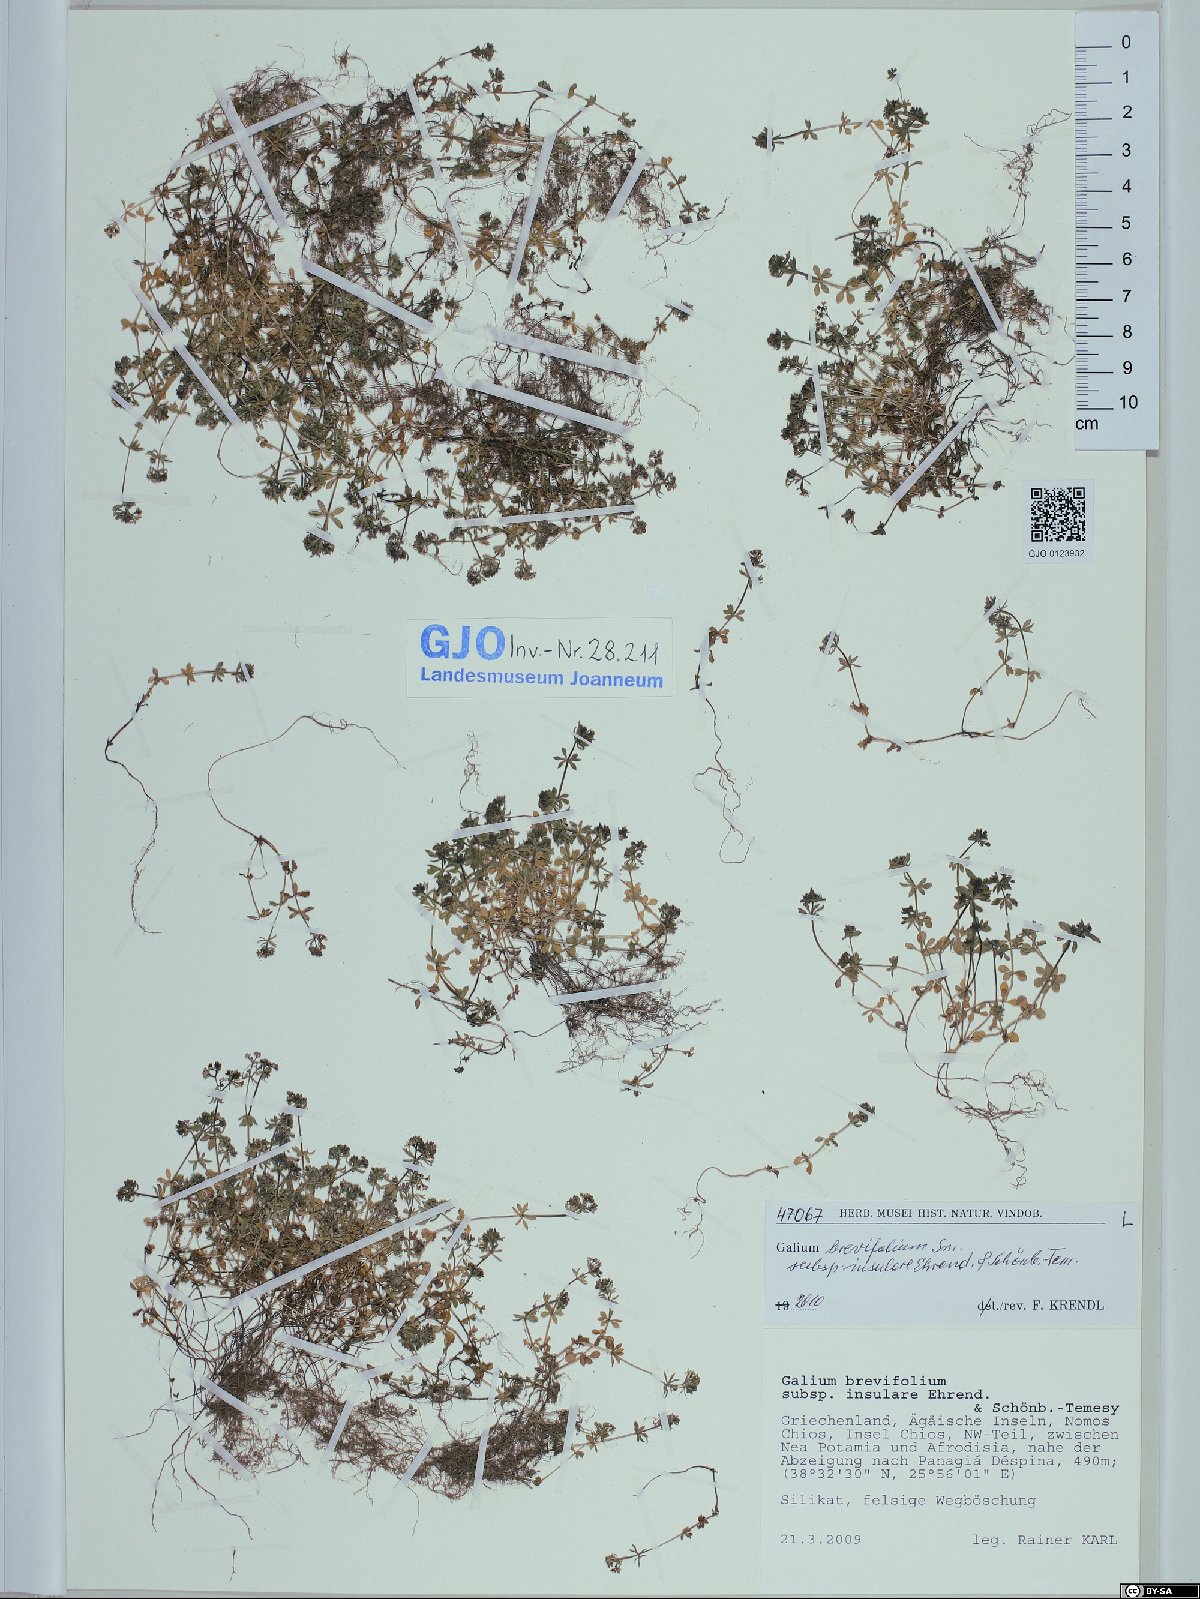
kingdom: Plantae
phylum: Tracheophyta
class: Magnoliopsida
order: Gentianales
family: Rubiaceae
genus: Galium
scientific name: Galium brevifolium
